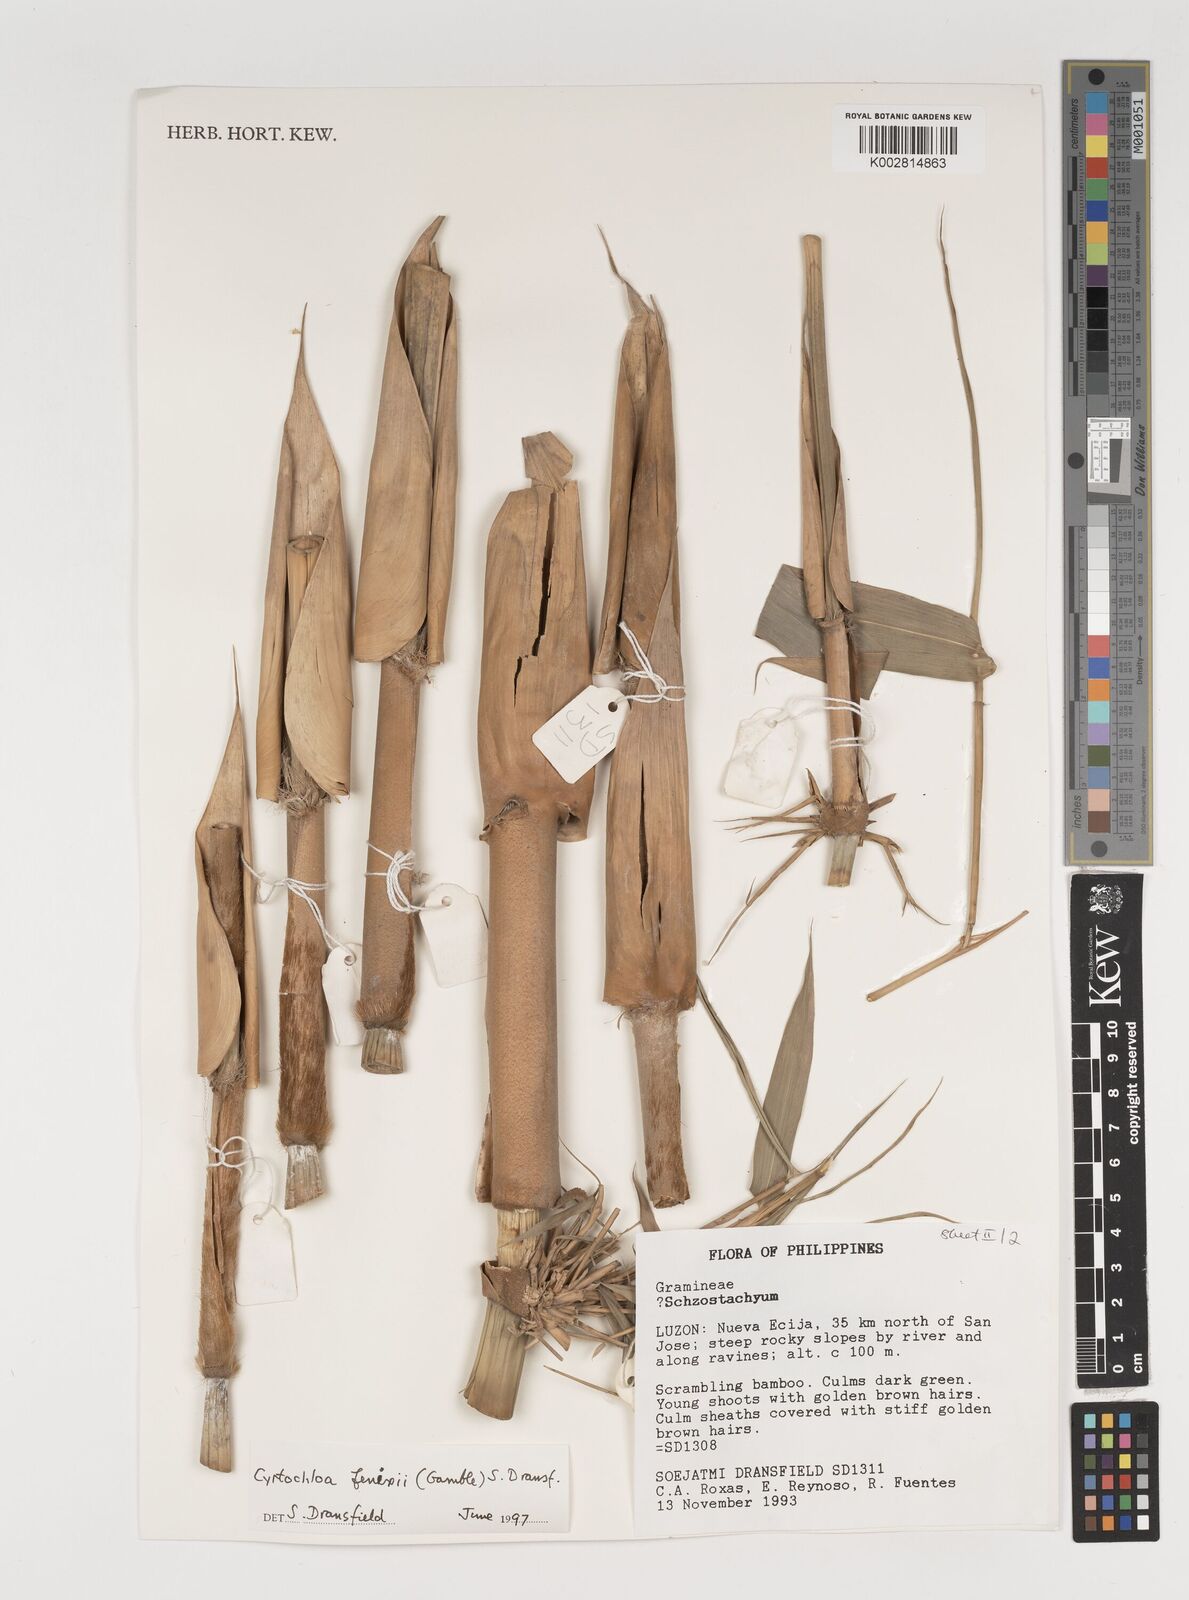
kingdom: Plantae
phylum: Tracheophyta
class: Liliopsida
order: Poales
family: Poaceae
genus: Cyrtochloa
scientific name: Cyrtochloa fenixii
